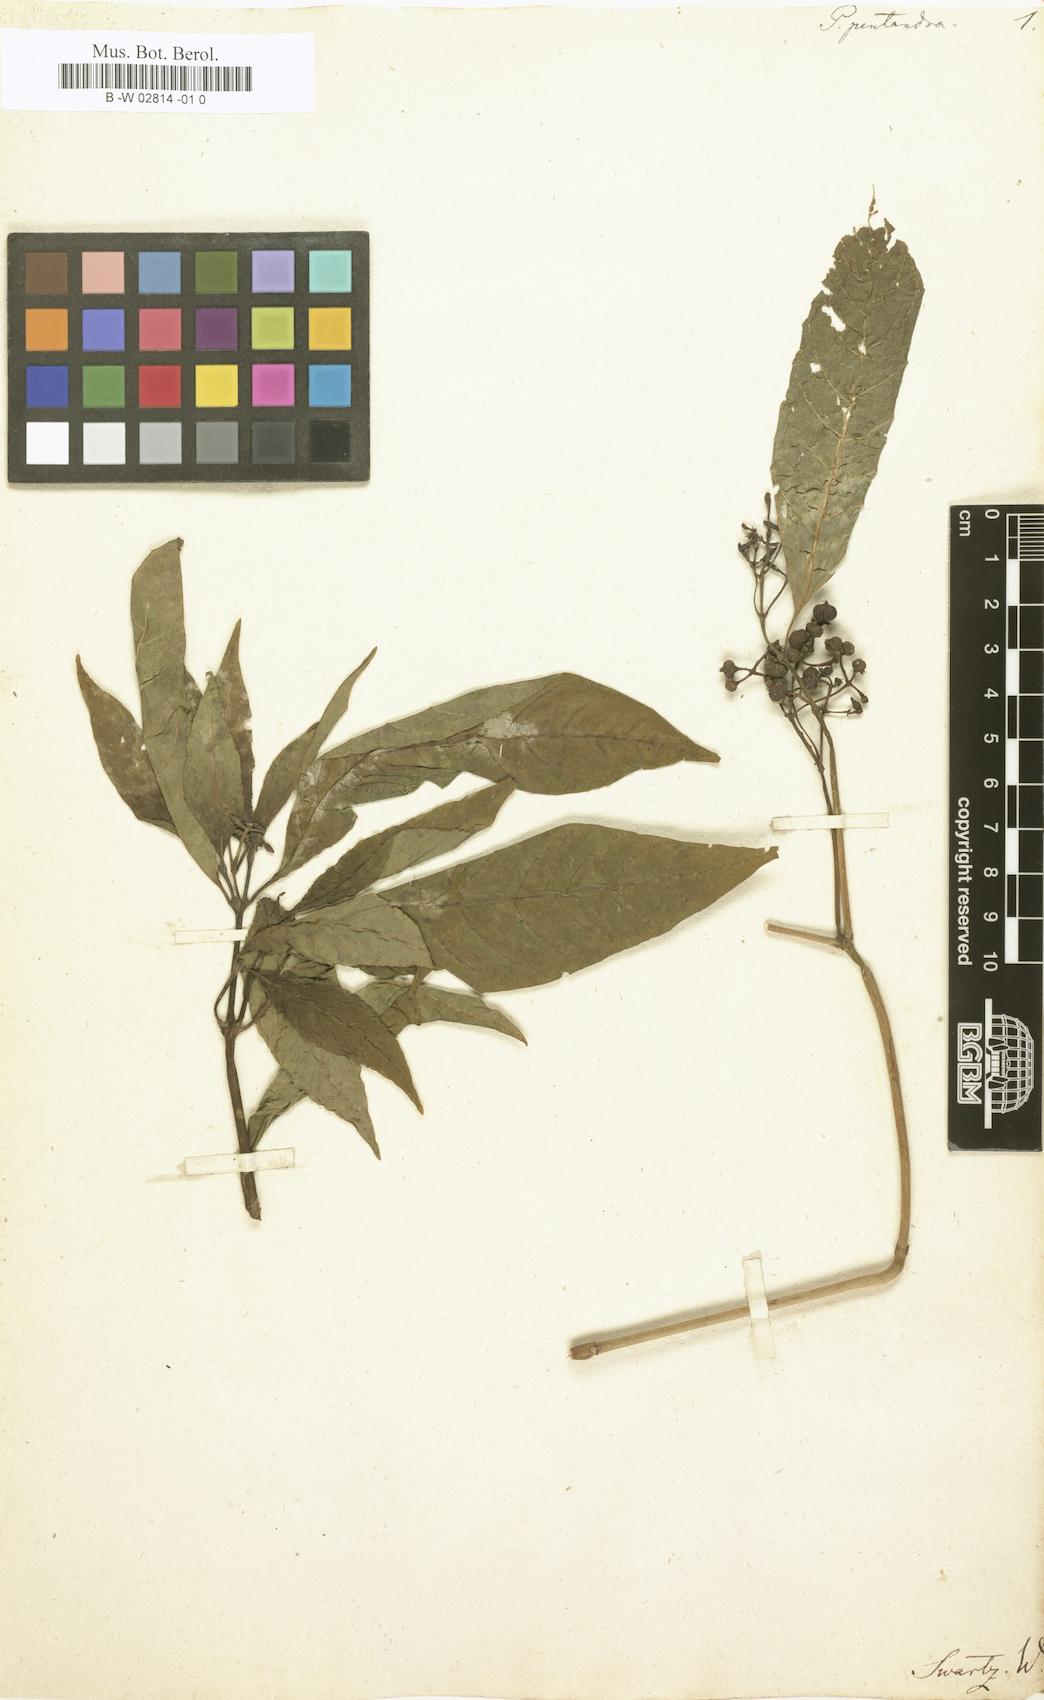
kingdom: Plantae
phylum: Tracheophyta
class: Magnoliopsida
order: Gentianales
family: Rubiaceae
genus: Palicourea
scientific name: Palicourea domingensis
